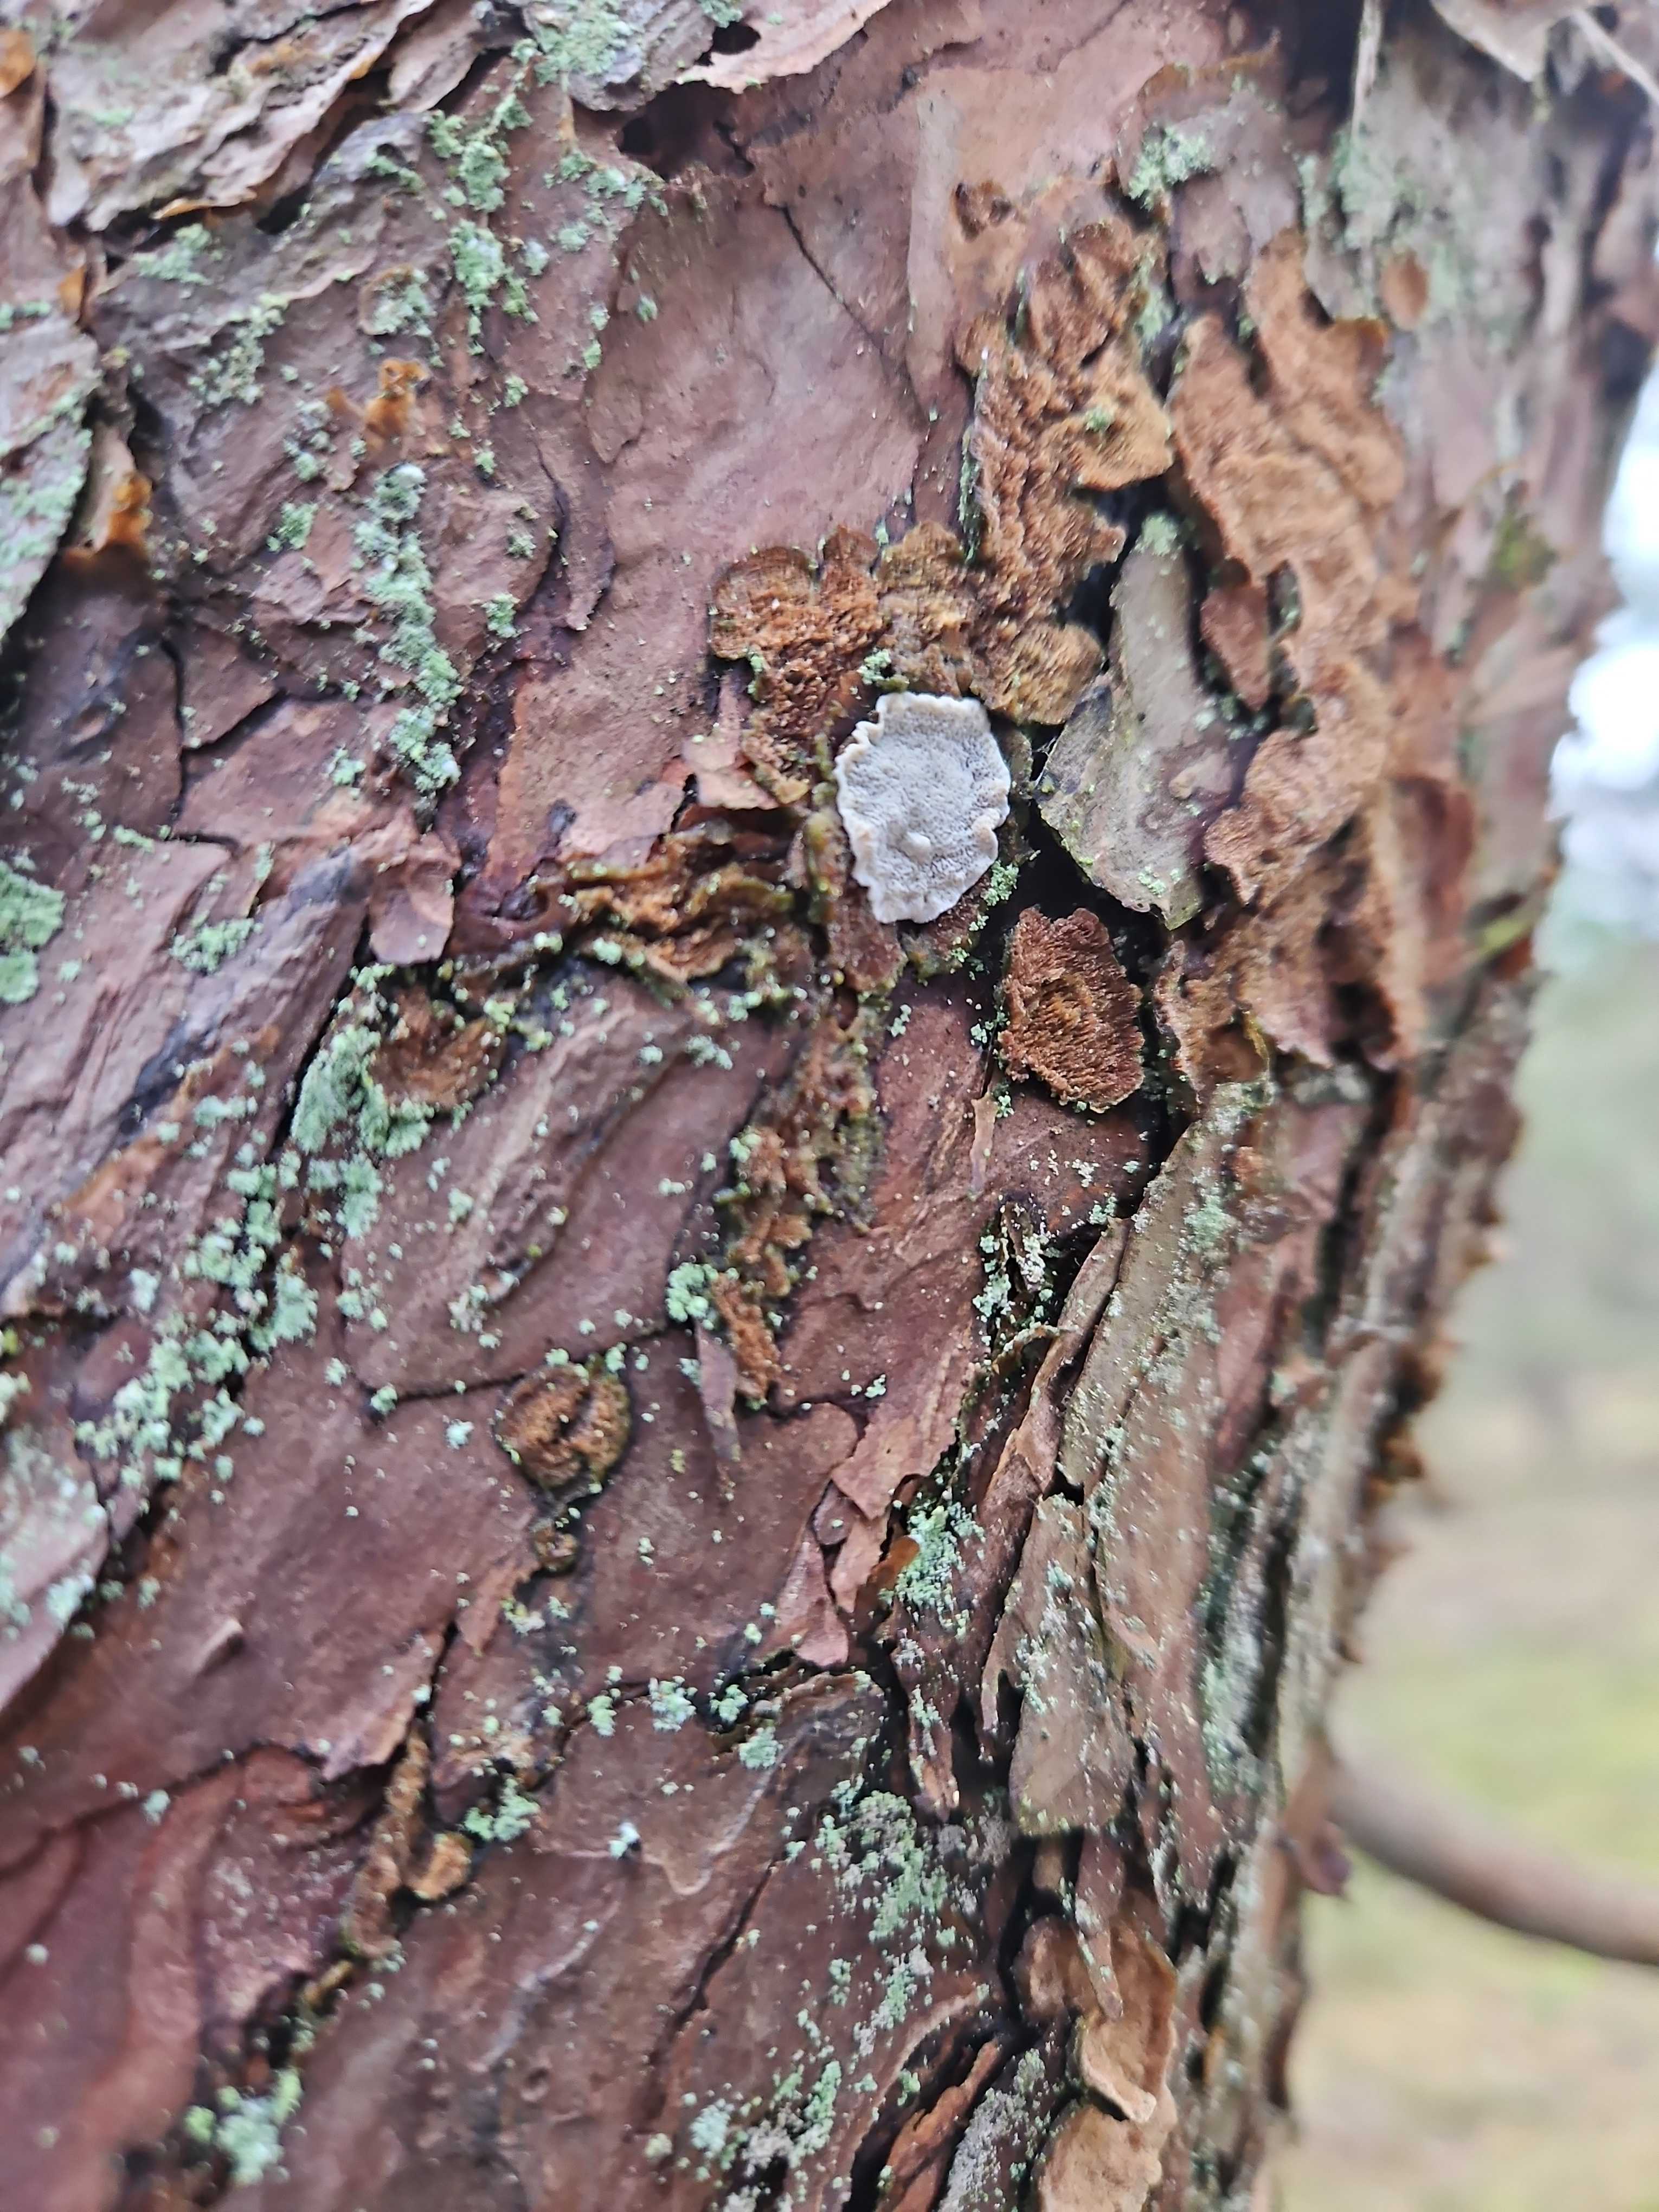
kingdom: Fungi
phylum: Basidiomycota
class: Agaricomycetes
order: Polyporales
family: Incrustoporiaceae
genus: Skeletocutis
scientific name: Skeletocutis carneogrisea
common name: rødgrå krystalporesvamp
